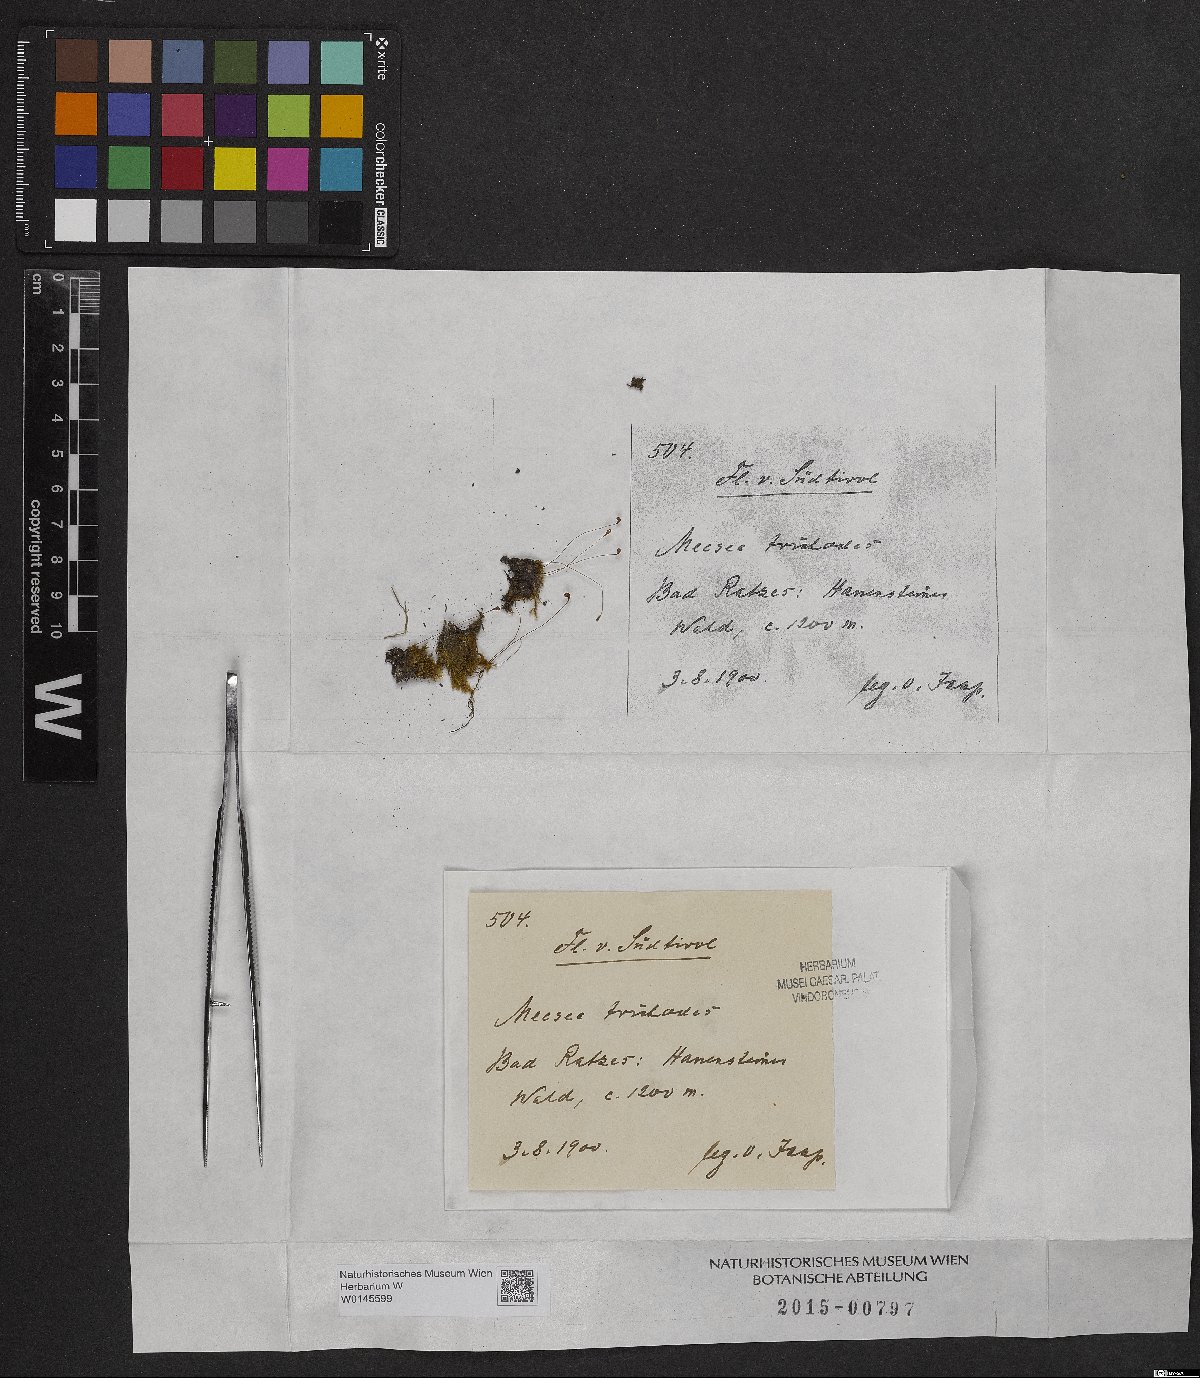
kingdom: Plantae
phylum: Bryophyta
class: Bryopsida
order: Splachnales
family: Meesiaceae
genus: Meesia
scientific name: Meesia uliginosa
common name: Capillary thread moss
